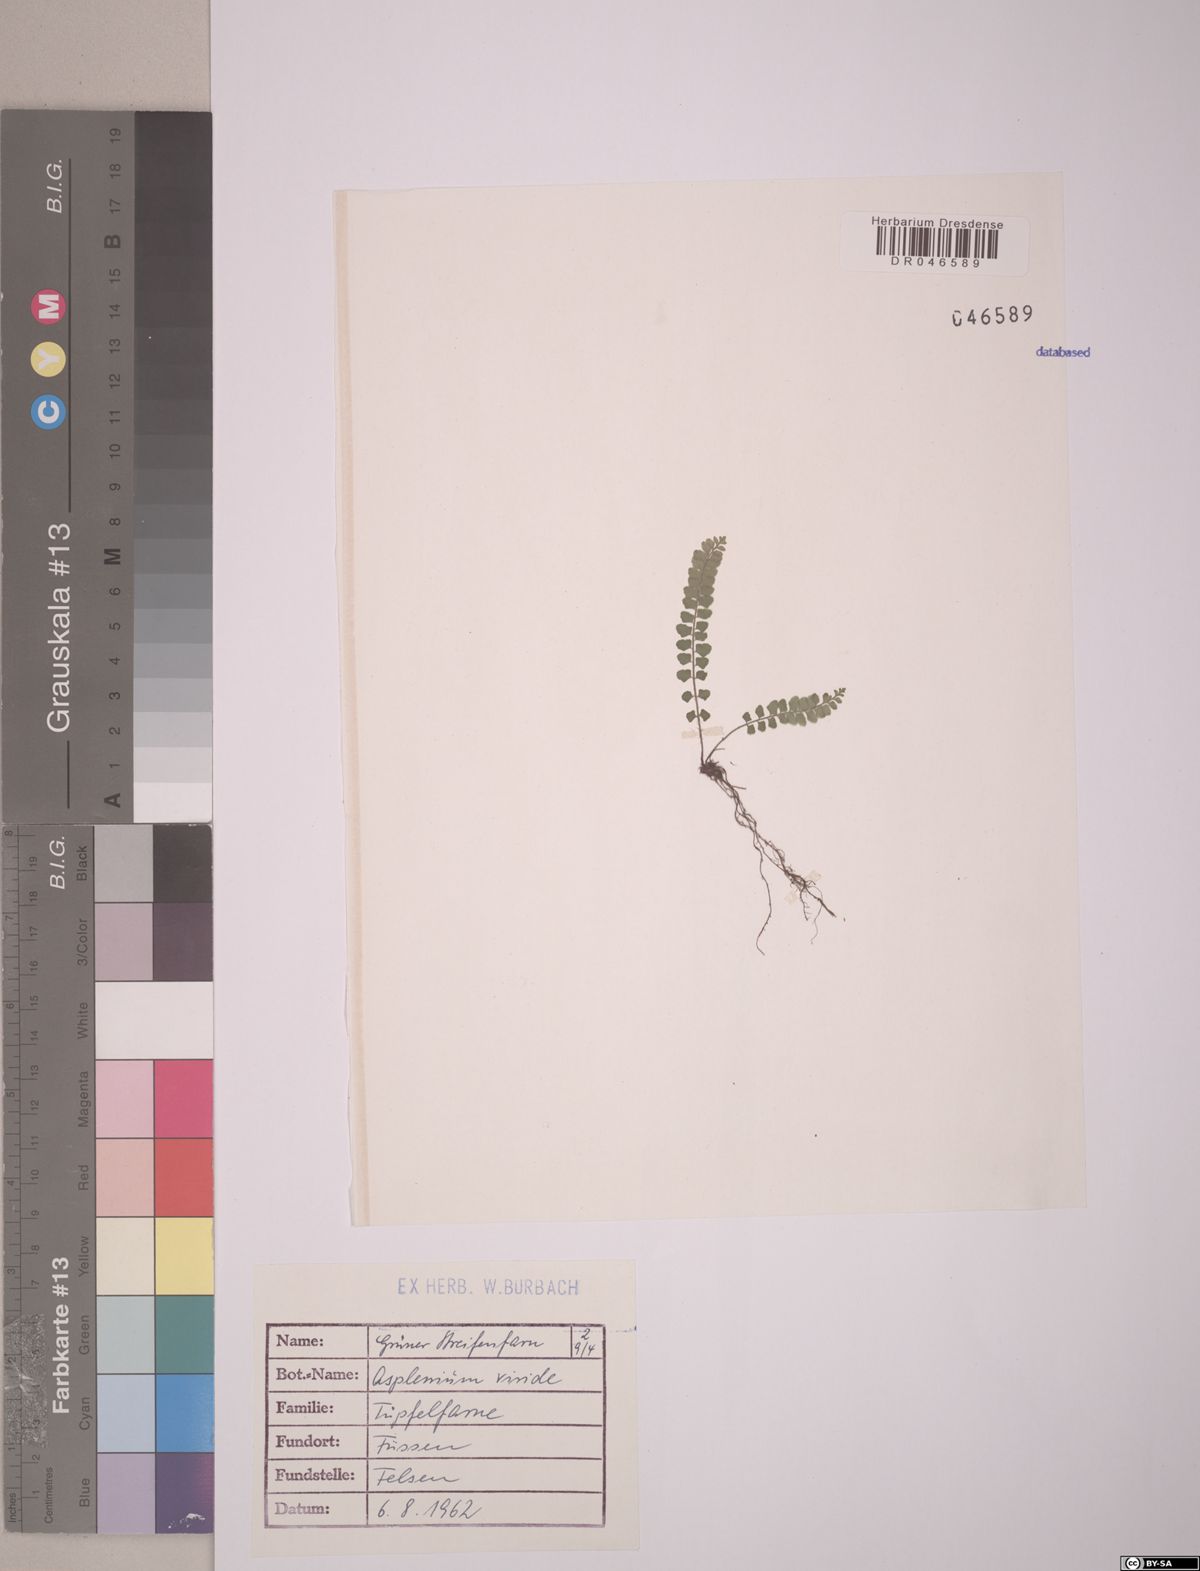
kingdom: Plantae
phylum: Tracheophyta
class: Polypodiopsida
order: Polypodiales
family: Aspleniaceae
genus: Asplenium
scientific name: Asplenium viride
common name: Green spleenwort
